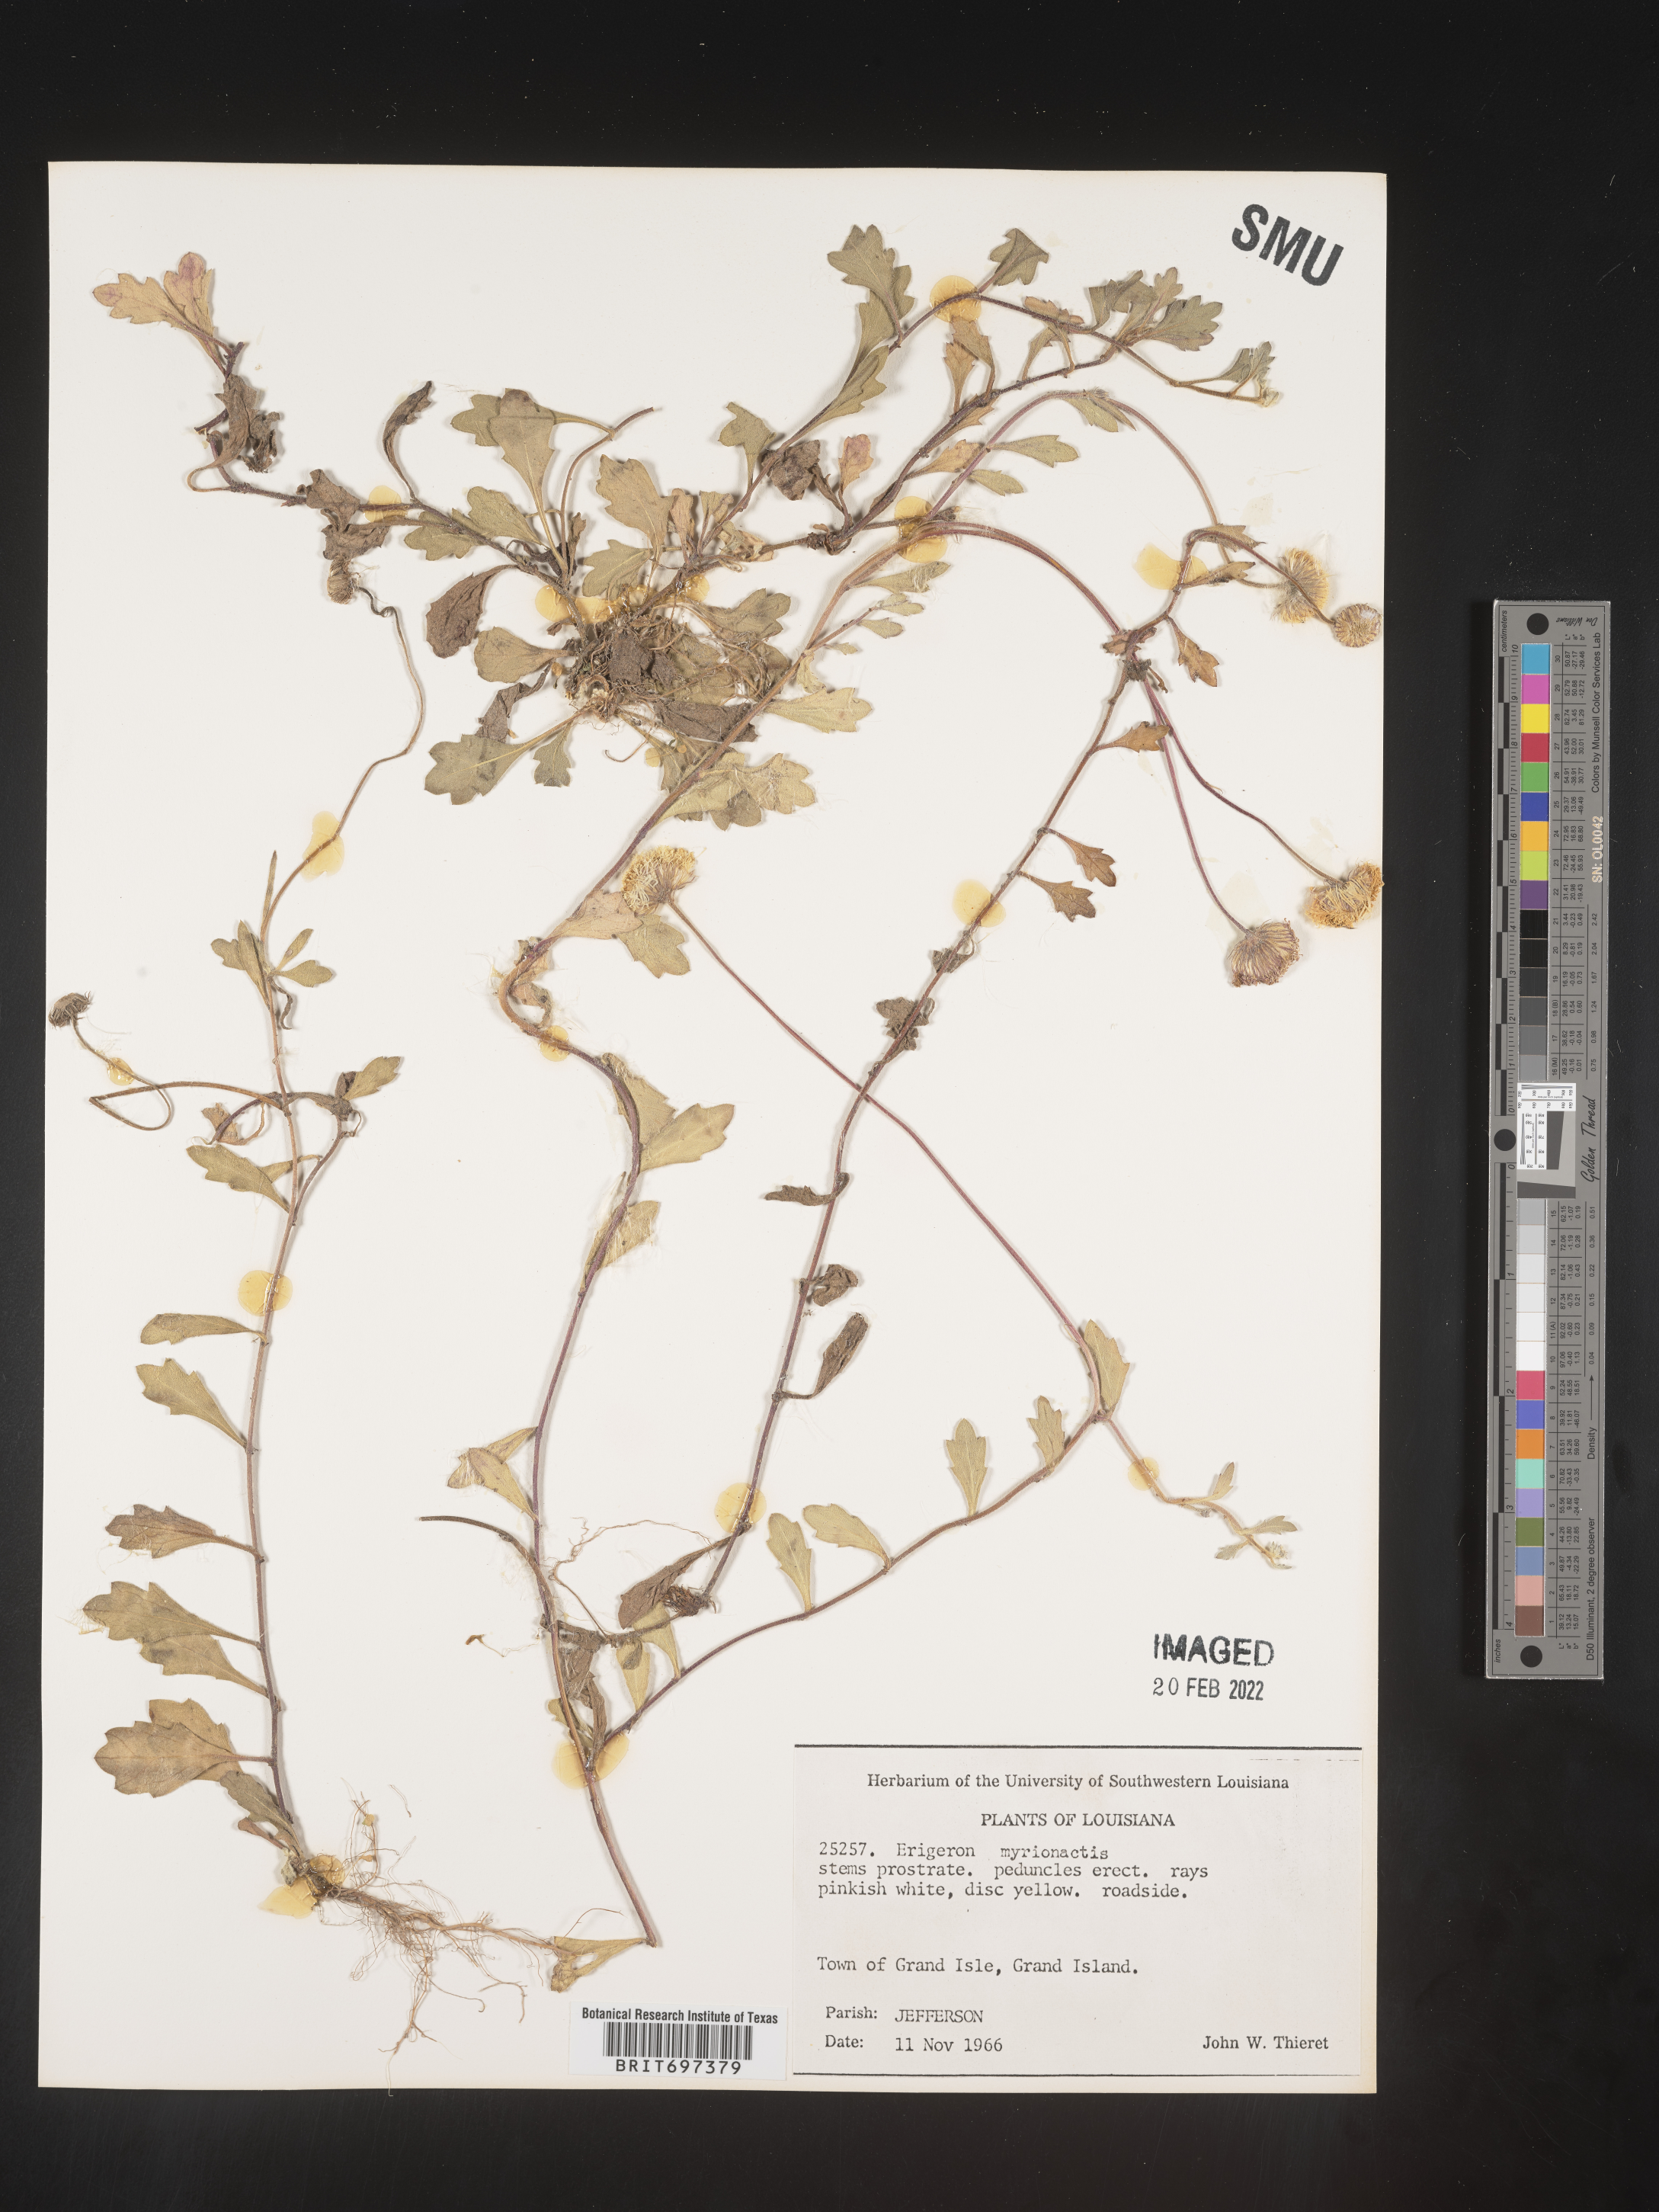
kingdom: Plantae
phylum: Tracheophyta
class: Magnoliopsida
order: Asterales
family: Asteraceae
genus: Erigeron
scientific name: Erigeron procumbens
